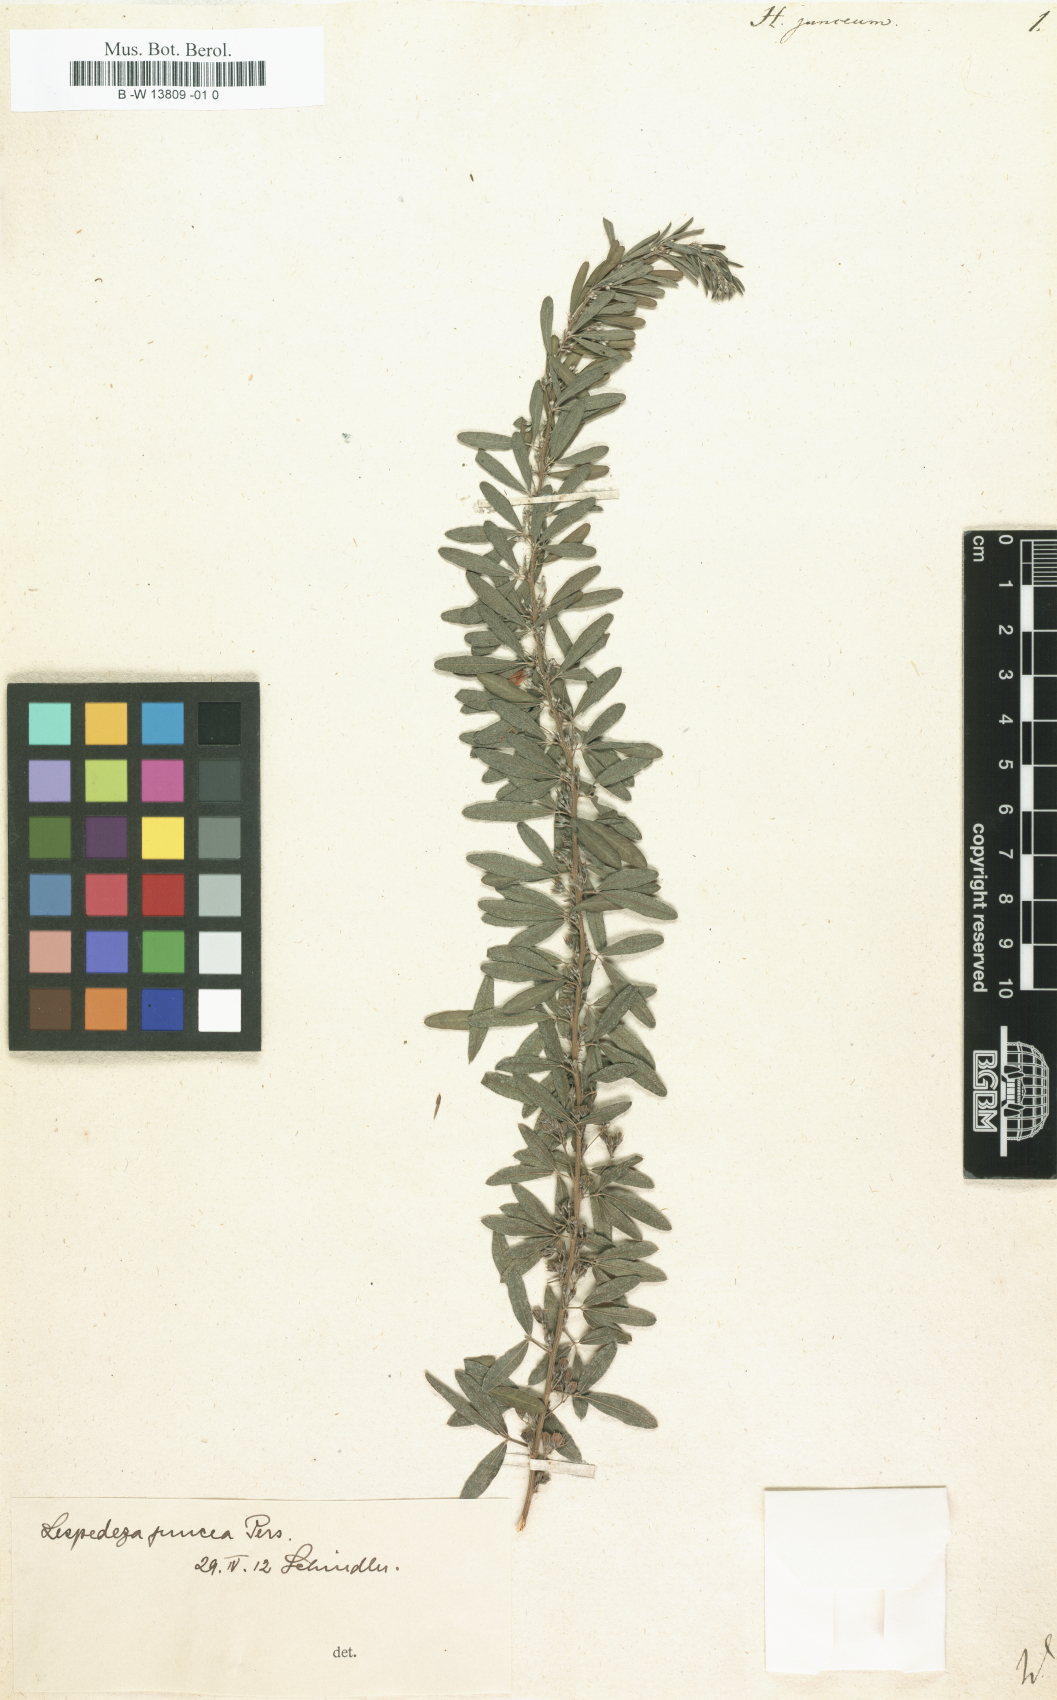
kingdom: Plantae
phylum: Tracheophyta
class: Magnoliopsida
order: Fabales
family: Fabaceae
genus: Lespedeza
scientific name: Lespedeza juncea
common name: Siberian lespedeza
